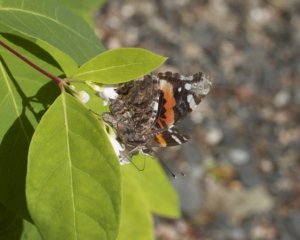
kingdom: Animalia
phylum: Arthropoda
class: Insecta
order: Lepidoptera
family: Nymphalidae
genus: Vanessa
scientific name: Vanessa atalanta
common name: Red Admiral
